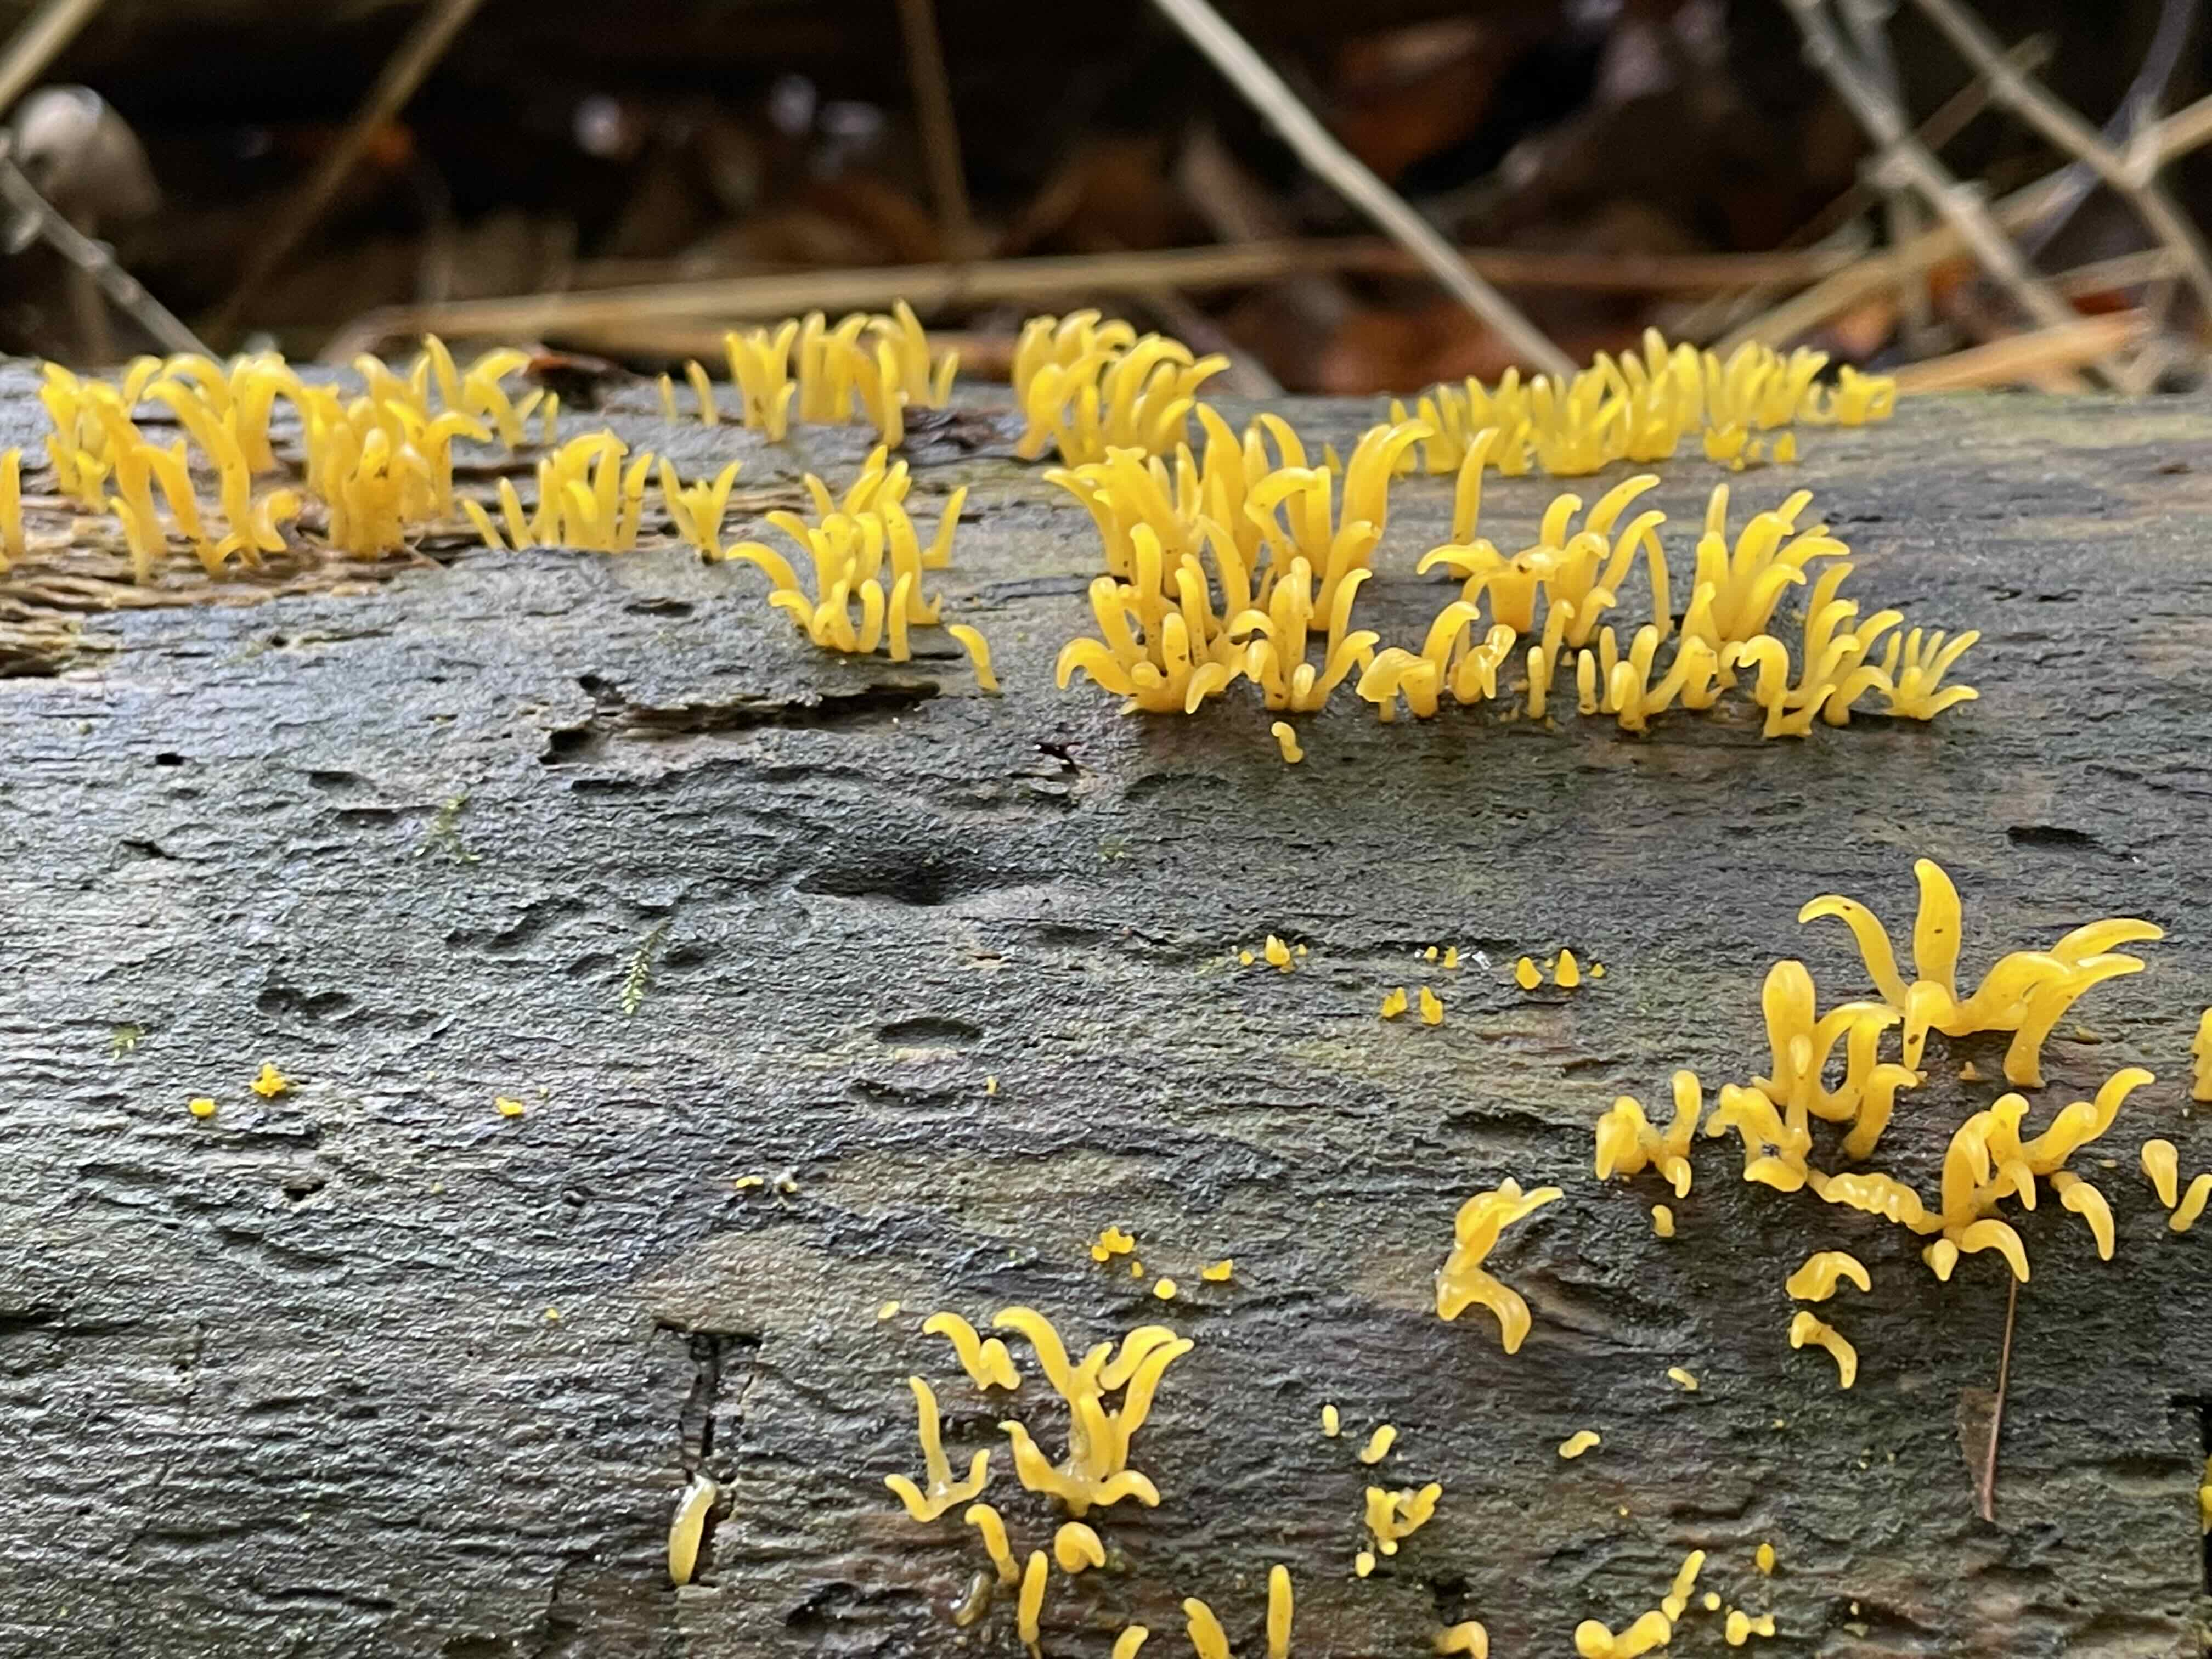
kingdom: Fungi
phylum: Basidiomycota
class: Dacrymycetes
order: Dacrymycetales
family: Dacrymycetaceae
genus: Calocera
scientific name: Calocera cornea
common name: liden guldgaffel
